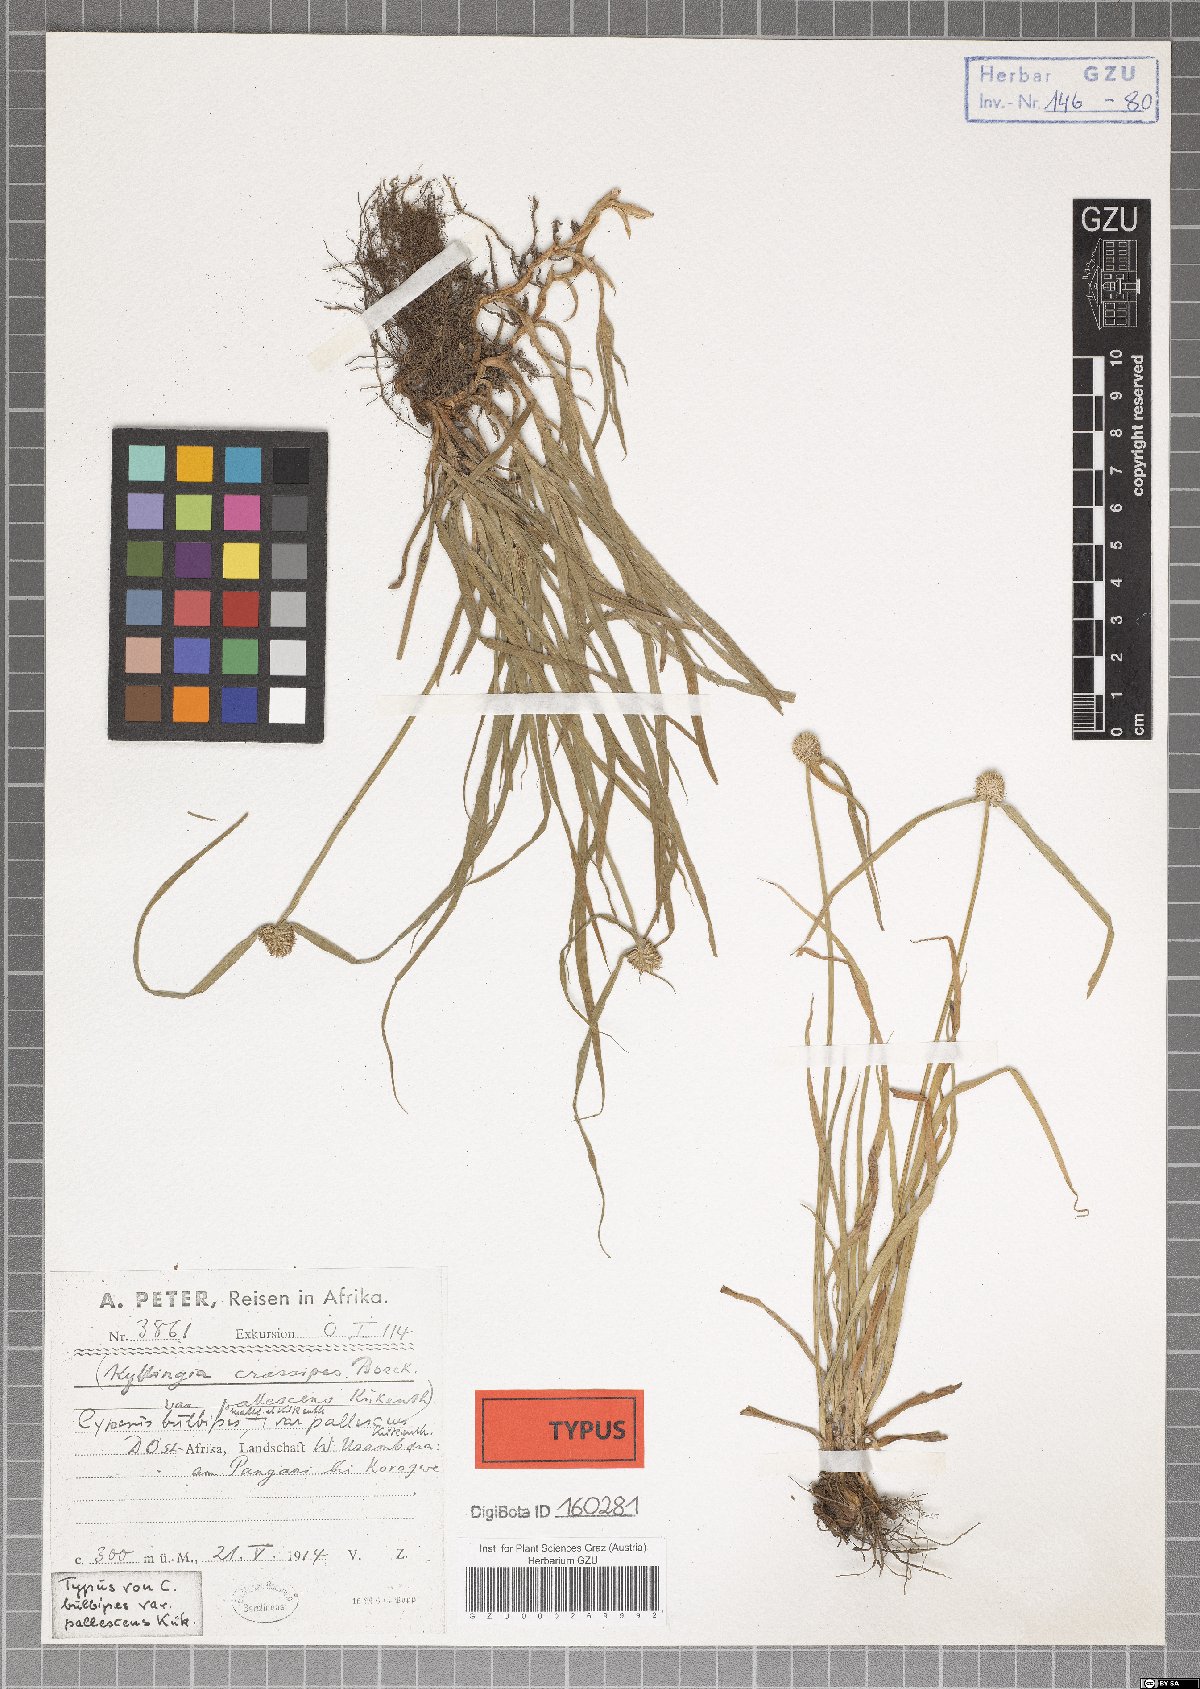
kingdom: Plantae
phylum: Tracheophyta
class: Liliopsida
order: Poales
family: Cyperaceae
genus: Cyperus
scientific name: Cyperus bulbipes
